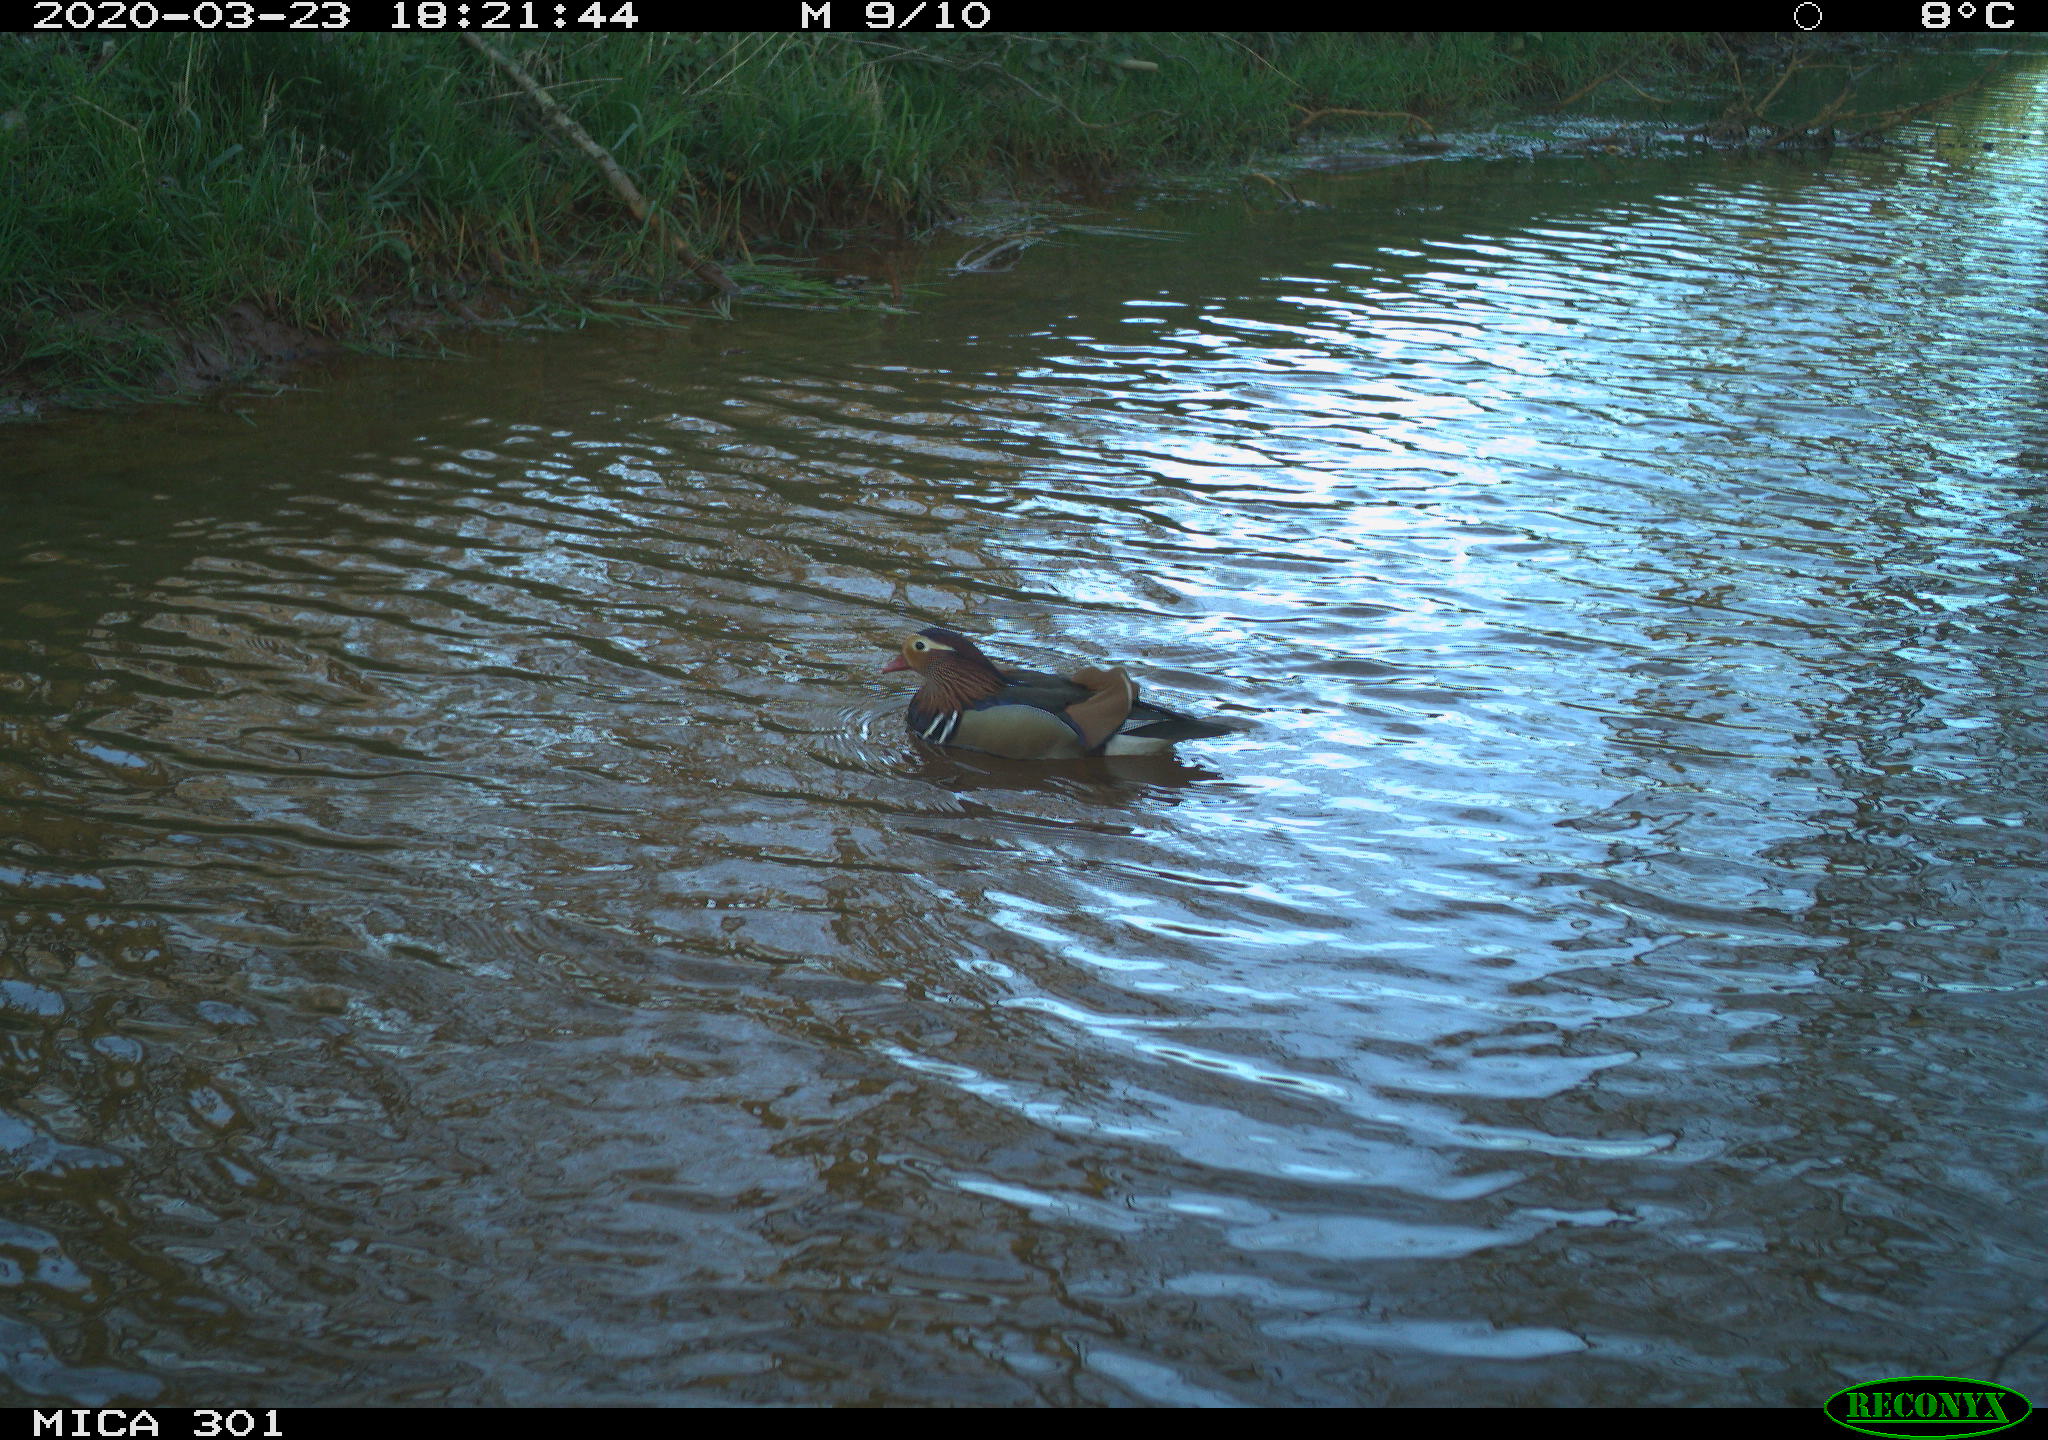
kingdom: Animalia
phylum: Chordata
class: Aves
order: Anseriformes
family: Anatidae
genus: Aix
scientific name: Aix galericulata
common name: Mandarin duck
